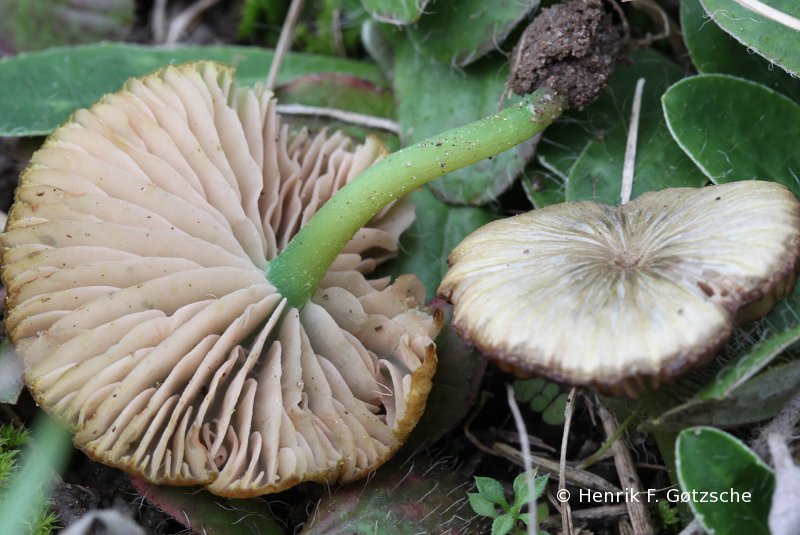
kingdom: Fungi
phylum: Basidiomycota
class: Agaricomycetes
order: Agaricales
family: Entolomataceae
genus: Entoloma
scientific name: Entoloma incanum
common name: grøngul rødblad
